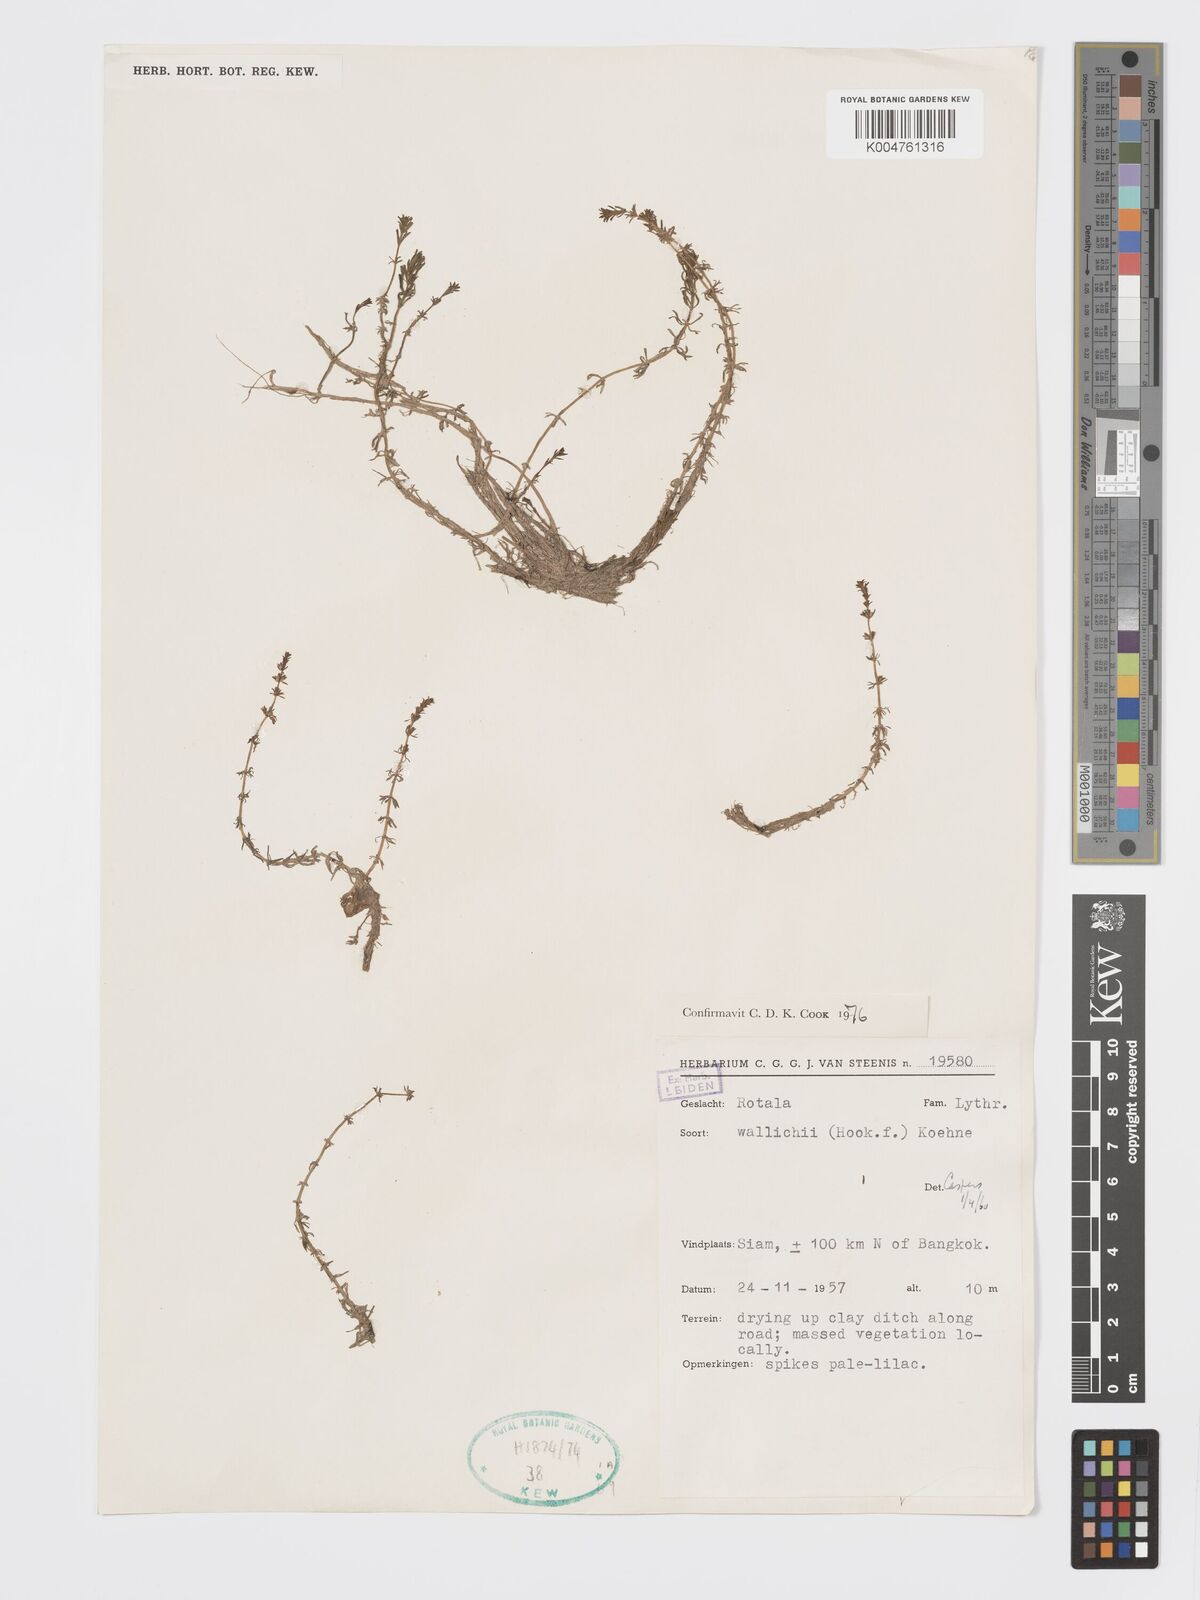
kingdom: Plantae
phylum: Tracheophyta
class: Magnoliopsida
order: Myrtales
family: Lythraceae
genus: Rotala
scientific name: Rotala wallichii
